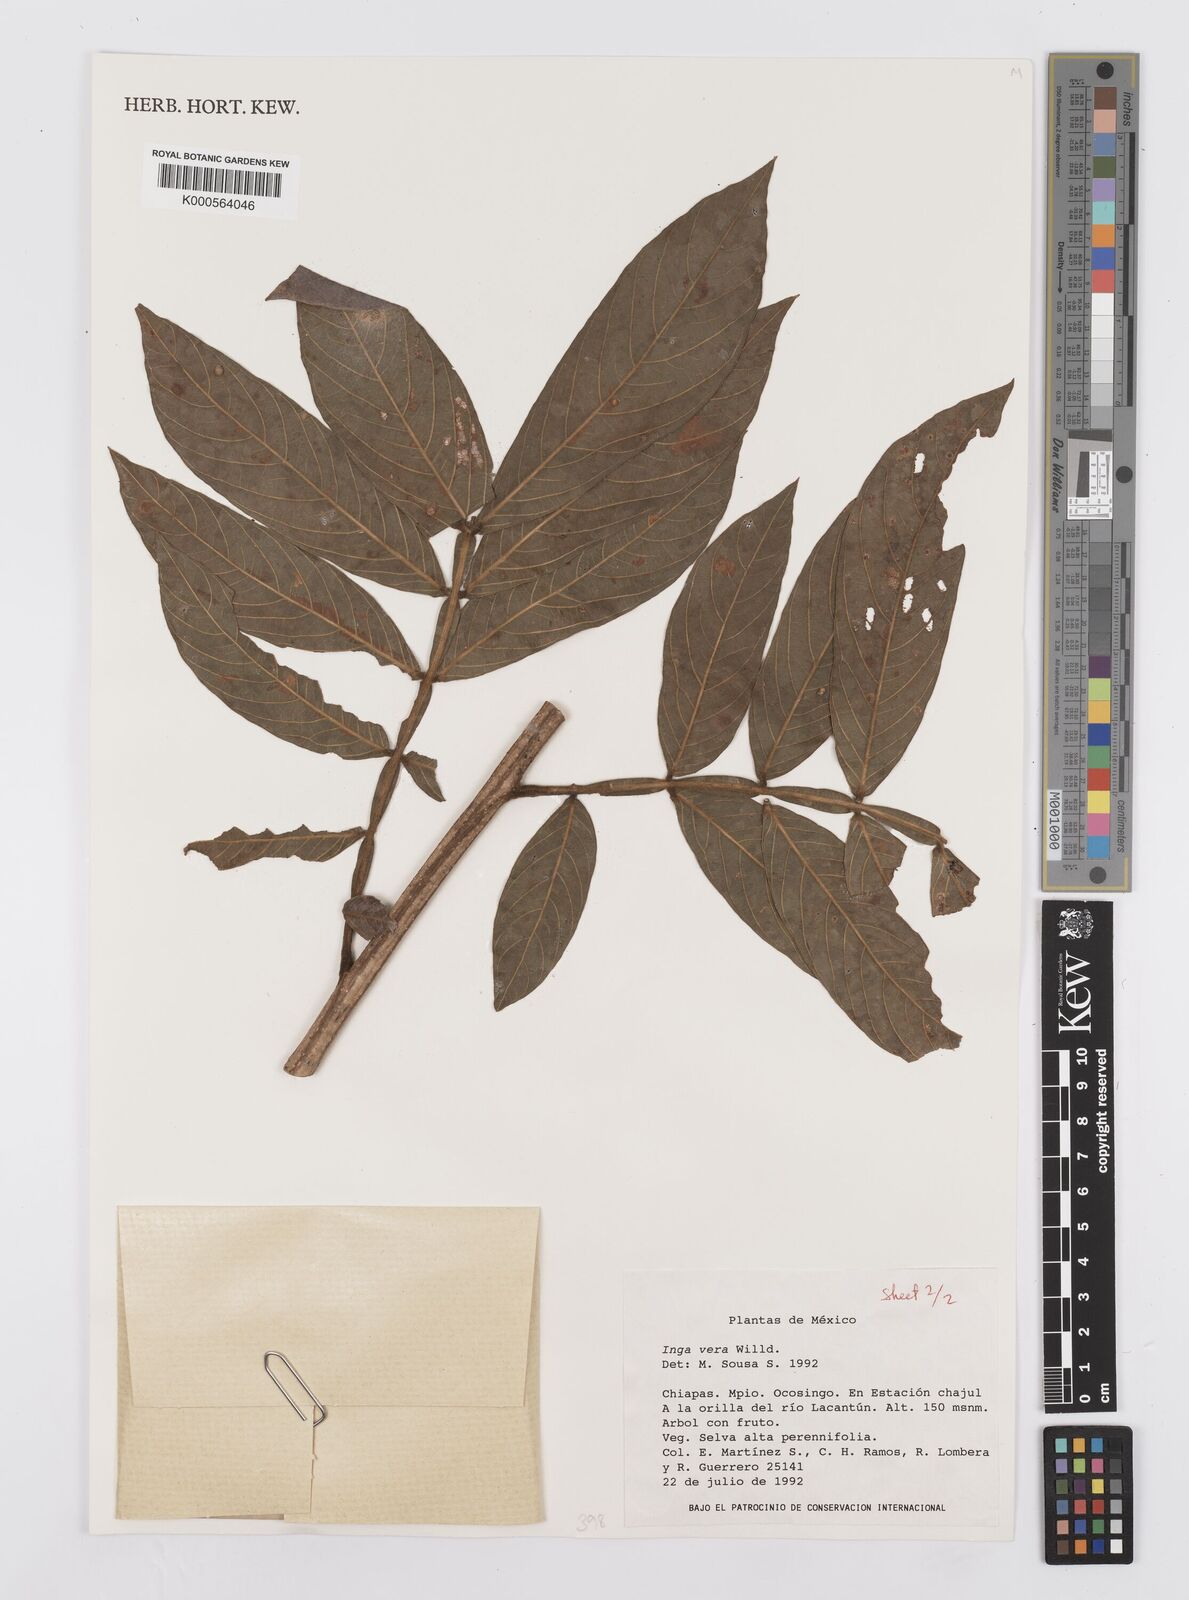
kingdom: Plantae
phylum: Tracheophyta
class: Magnoliopsida
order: Fabales
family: Fabaceae
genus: Inga
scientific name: Inga vera
